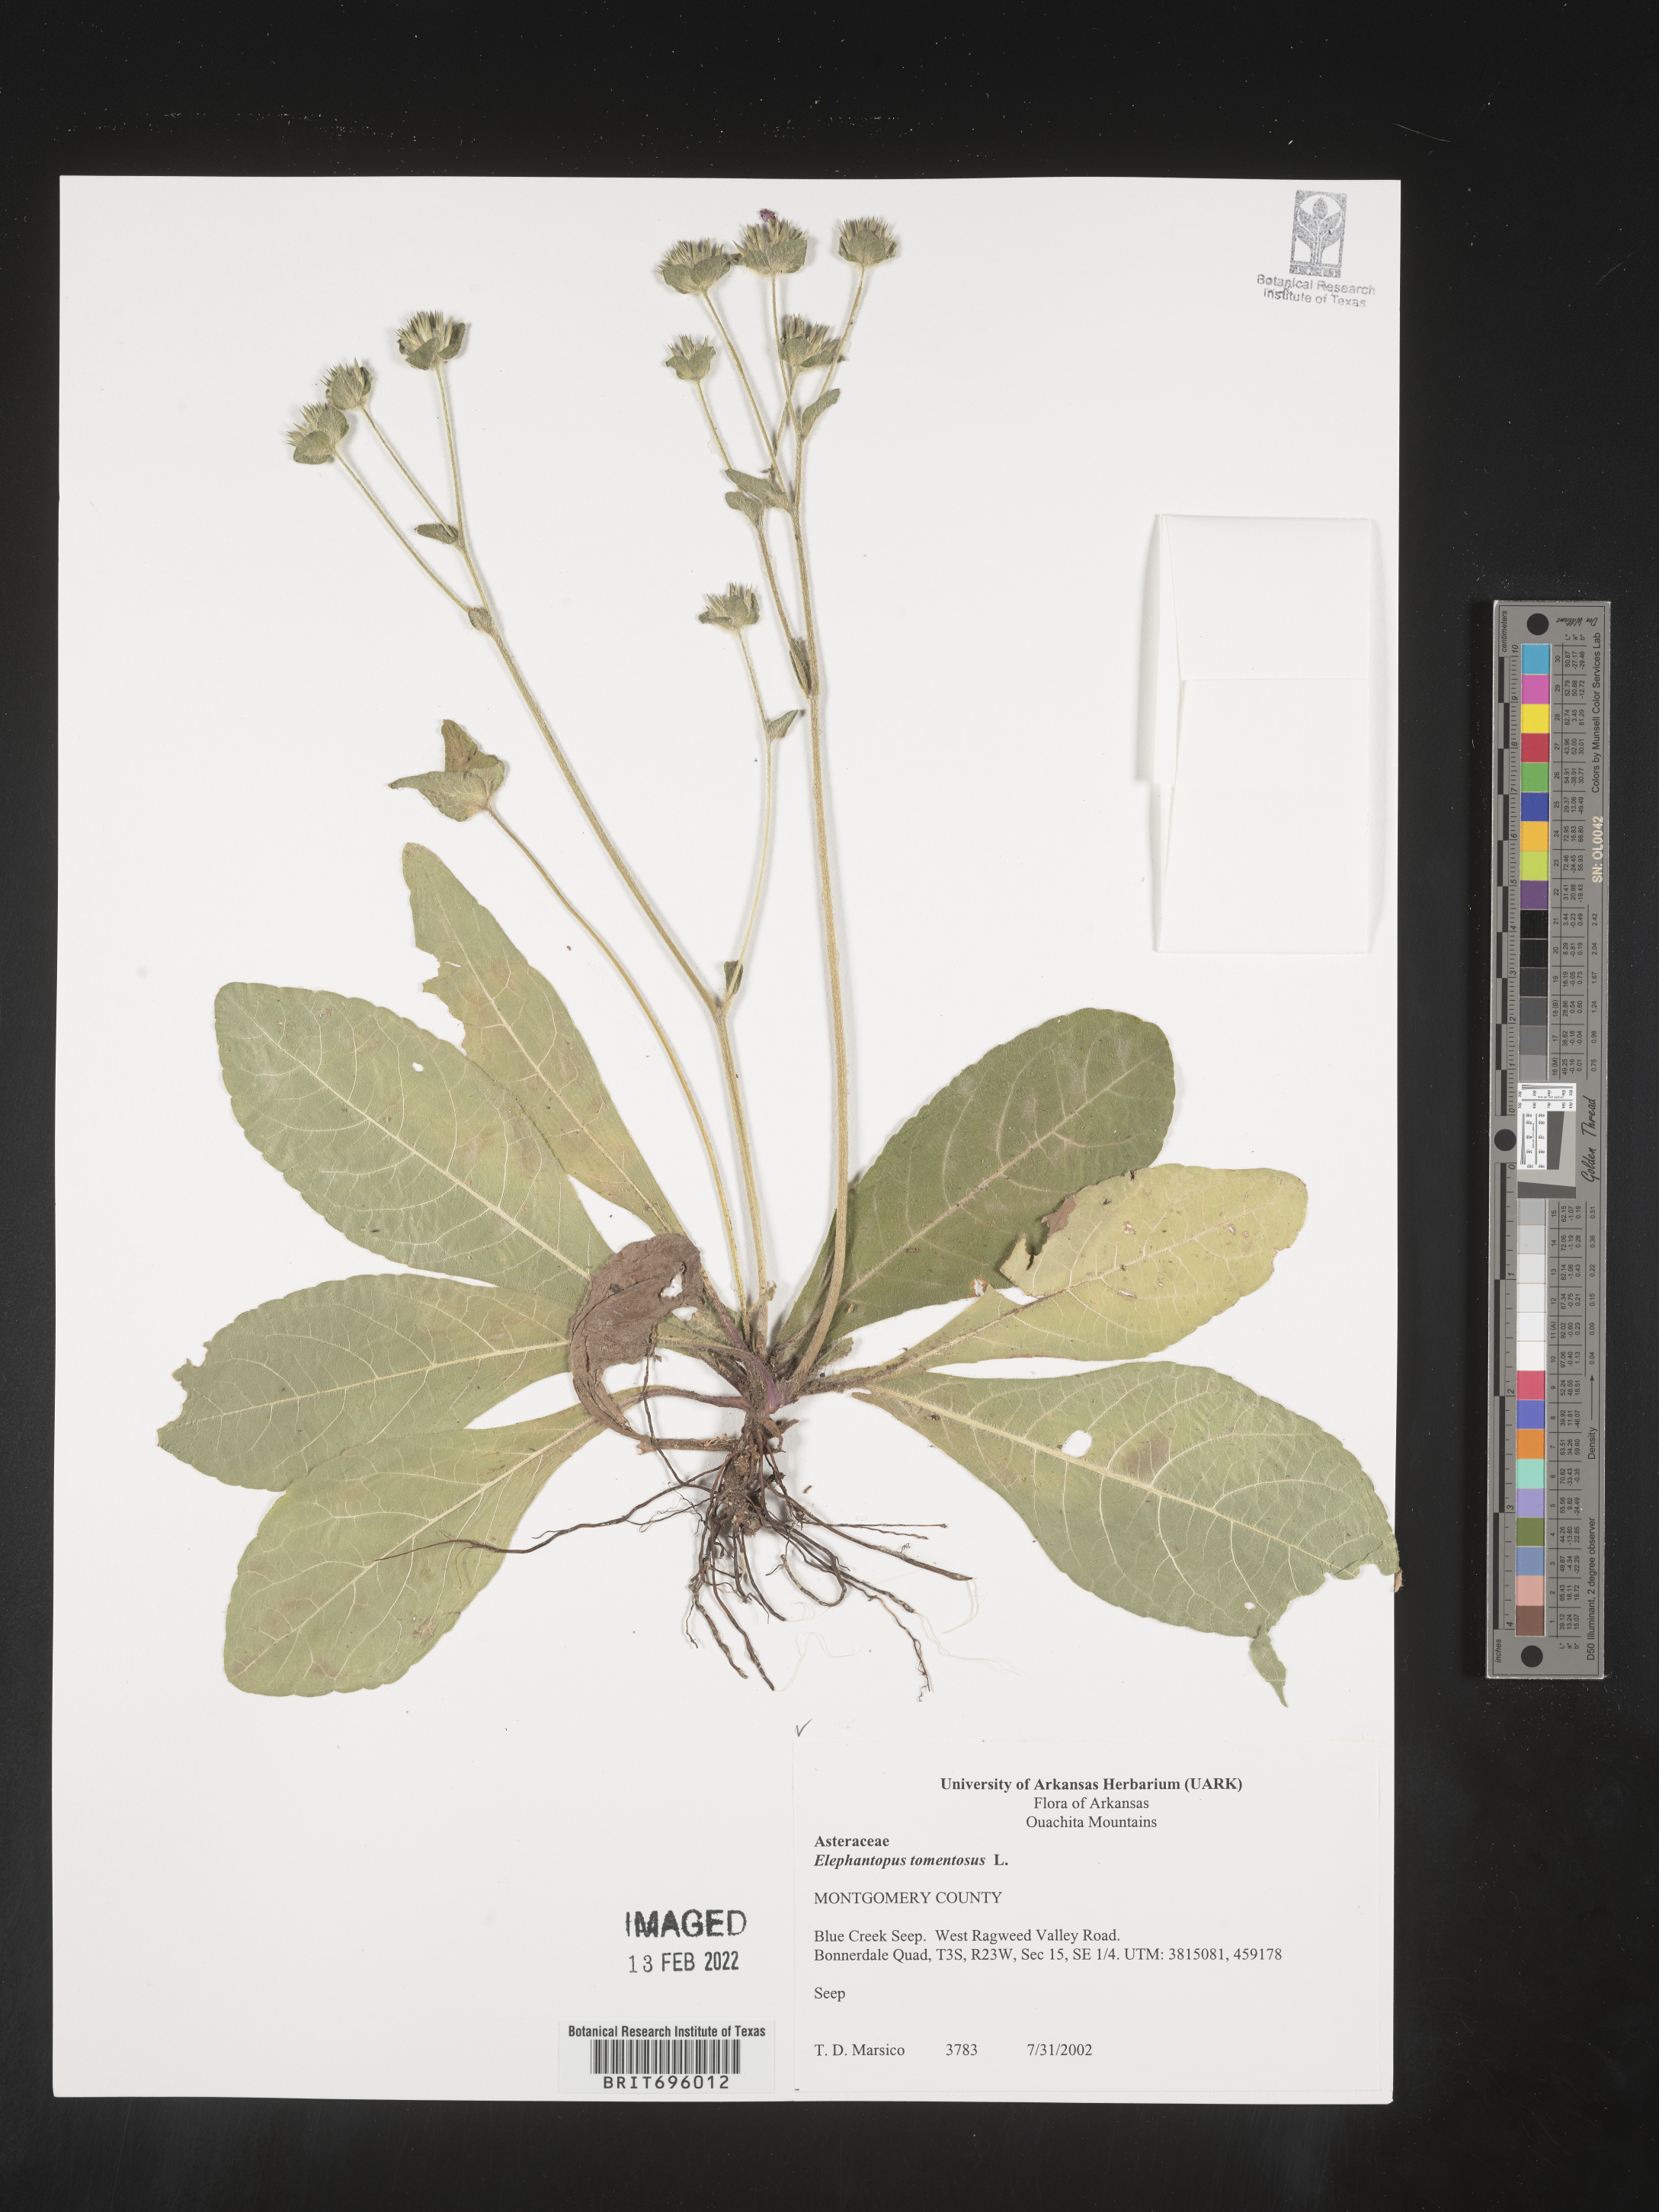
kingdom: Plantae
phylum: Tracheophyta
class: Magnoliopsida
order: Asterales
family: Asteraceae
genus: Elephantopus
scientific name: Elephantopus tomentosus
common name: Tobacco-weed
